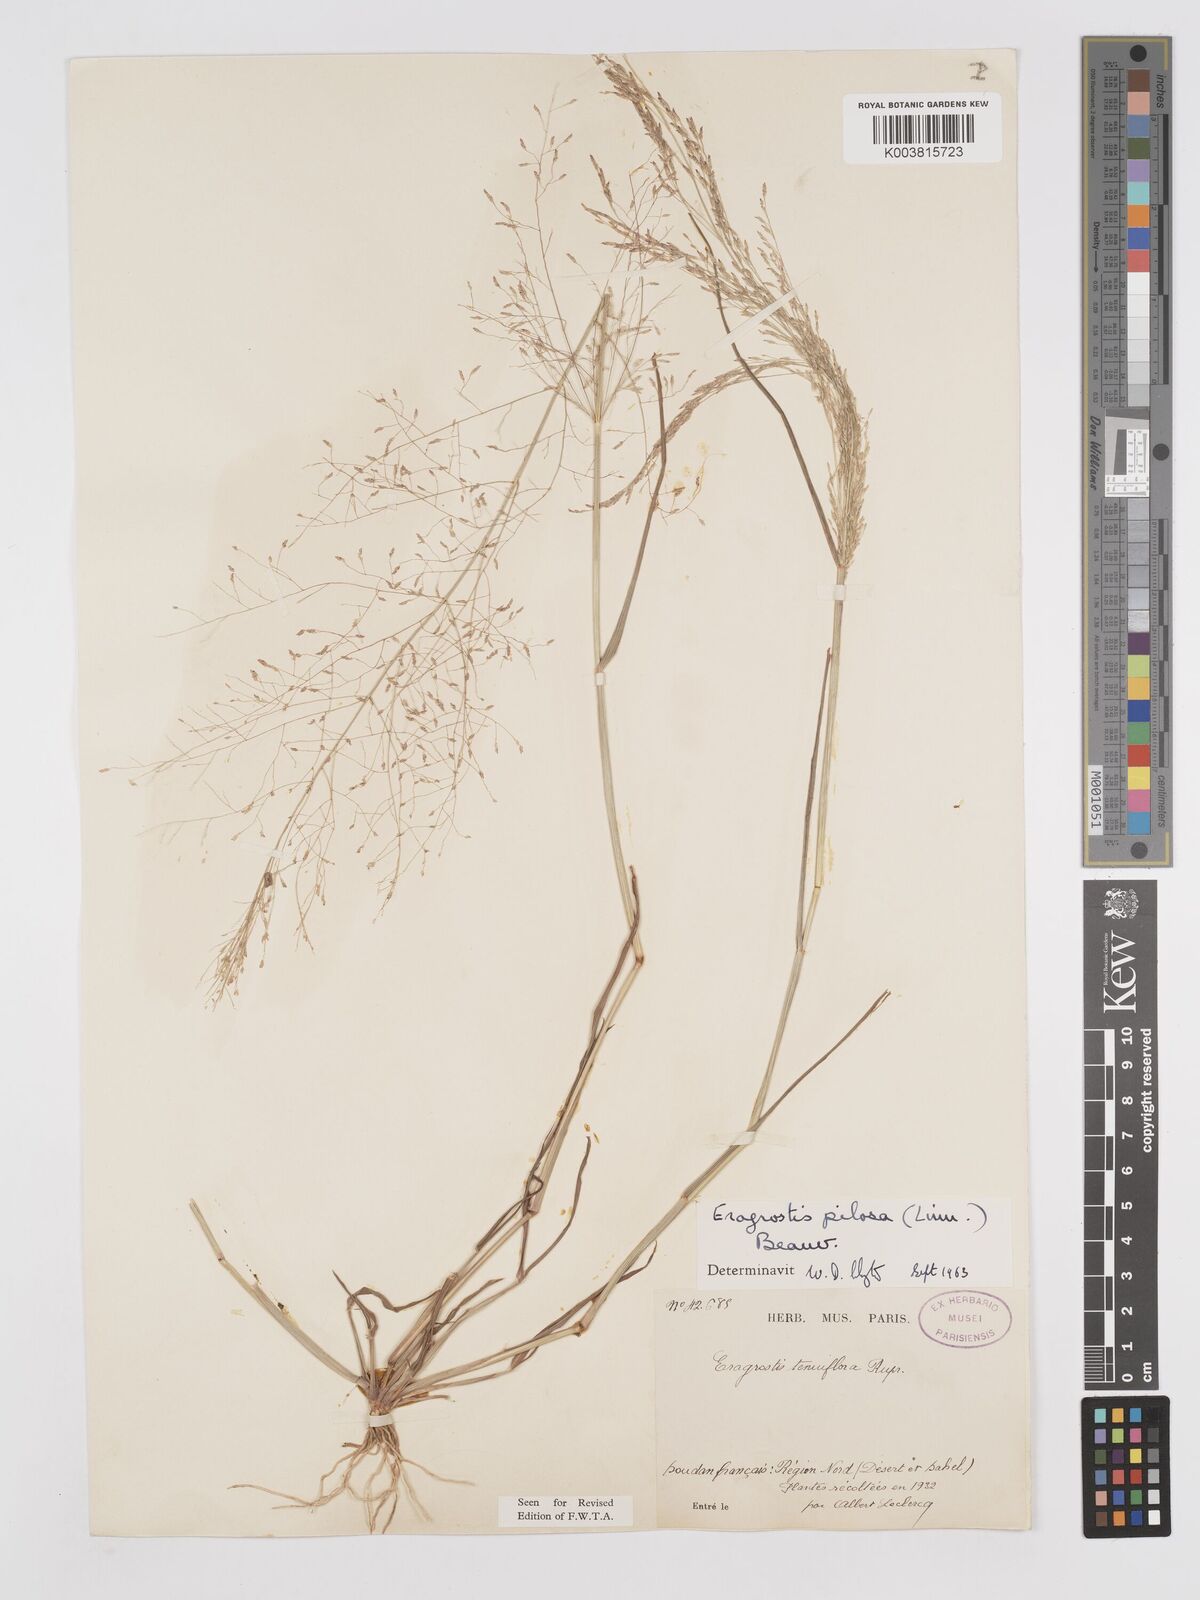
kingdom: Plantae
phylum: Tracheophyta
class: Liliopsida
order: Poales
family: Poaceae
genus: Eragrostis
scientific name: Eragrostis pilosa
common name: Indian lovegrass
